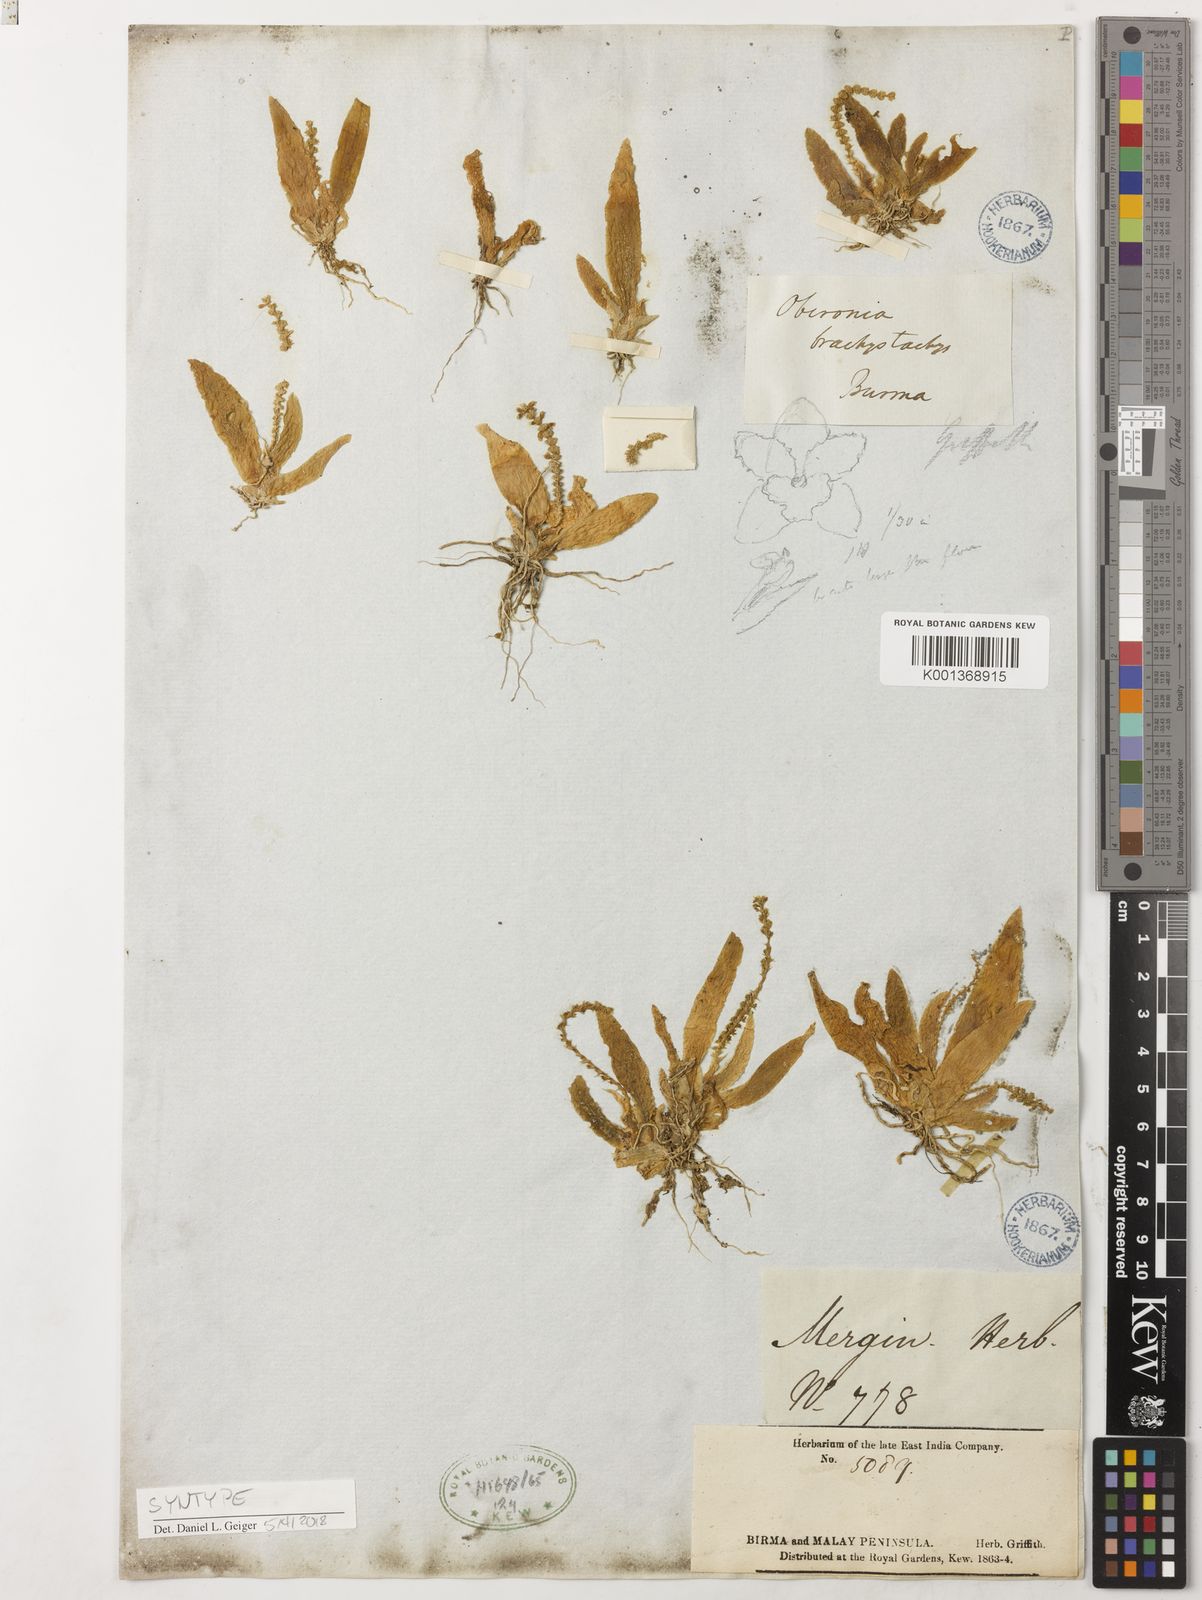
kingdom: Plantae
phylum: Tracheophyta
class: Liliopsida
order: Asparagales
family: Orchidaceae
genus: Oberonia
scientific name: Oberonia brachystachys
